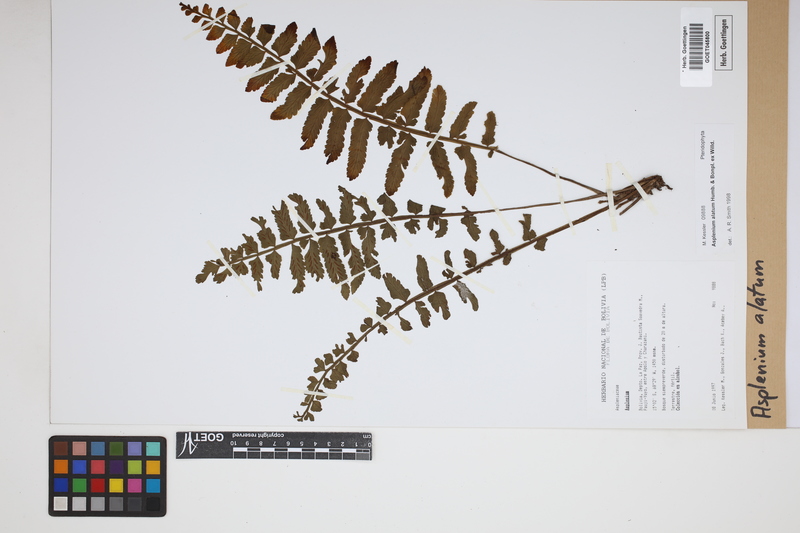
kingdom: Plantae
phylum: Tracheophyta
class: Polypodiopsida
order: Polypodiales
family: Aspleniaceae
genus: Asplenium
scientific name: Asplenium alatum
